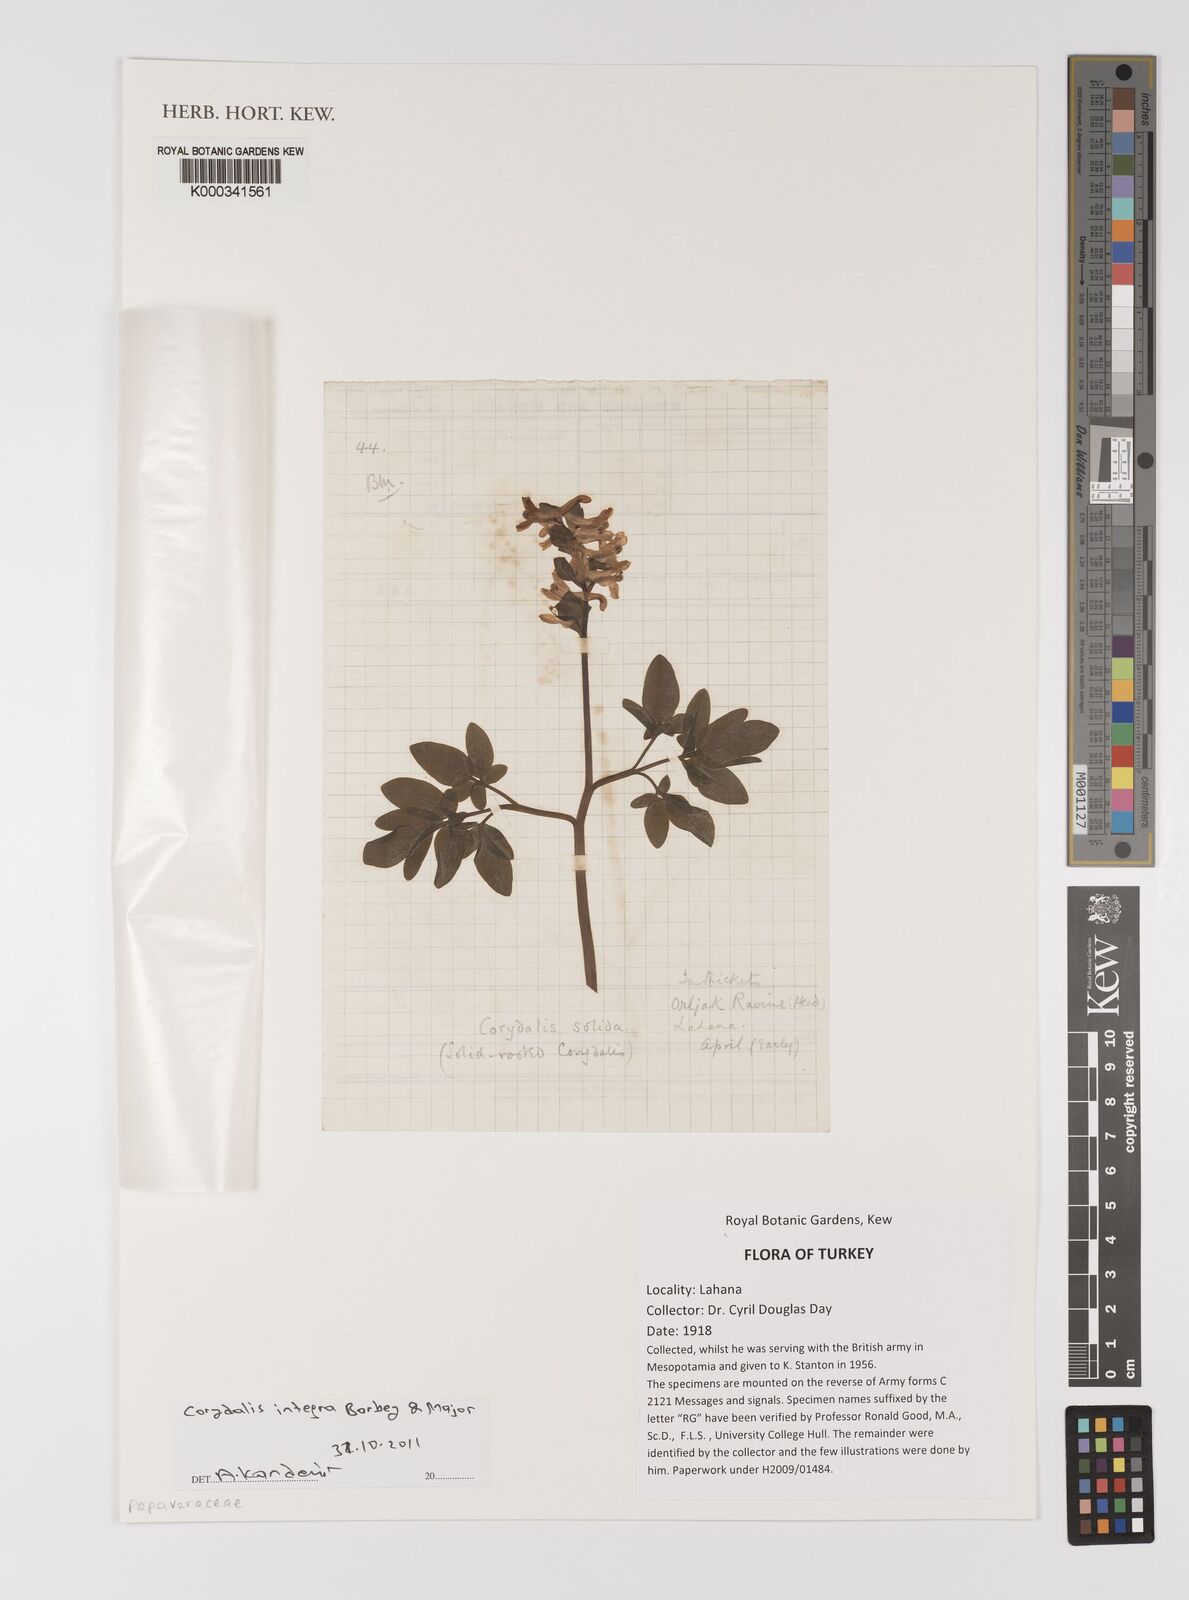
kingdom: Plantae
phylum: Tracheophyta
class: Magnoliopsida
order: Ranunculales
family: Papaveraceae
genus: Corydalis
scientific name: Corydalis integra
